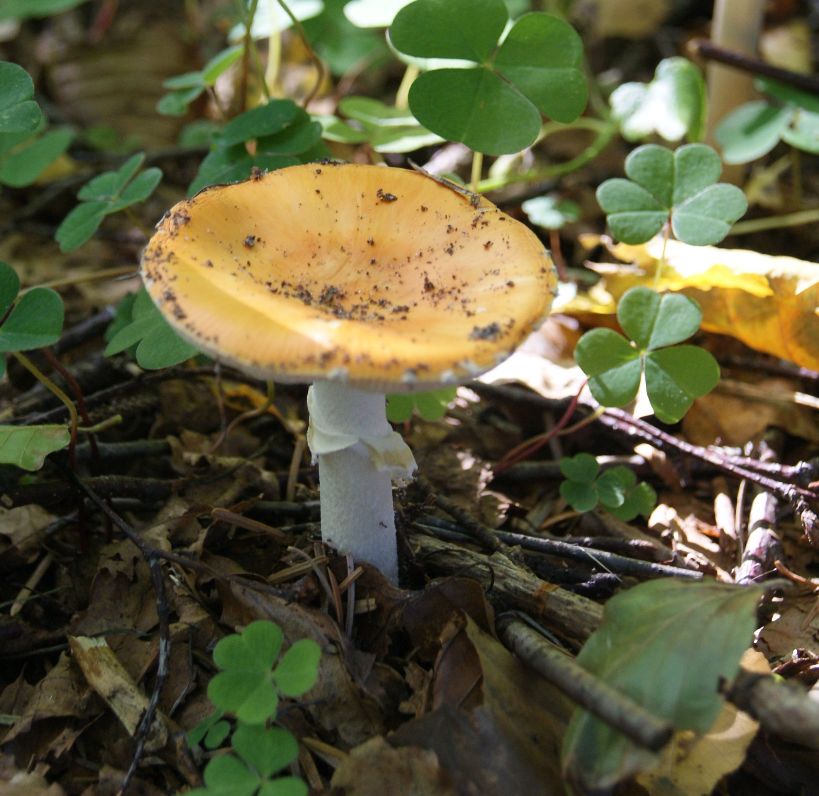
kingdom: Fungi
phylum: Basidiomycota
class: Agaricomycetes
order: Agaricales
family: Amanitaceae
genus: Amanita
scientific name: Amanita gemmata
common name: okkergul fluesvamp
